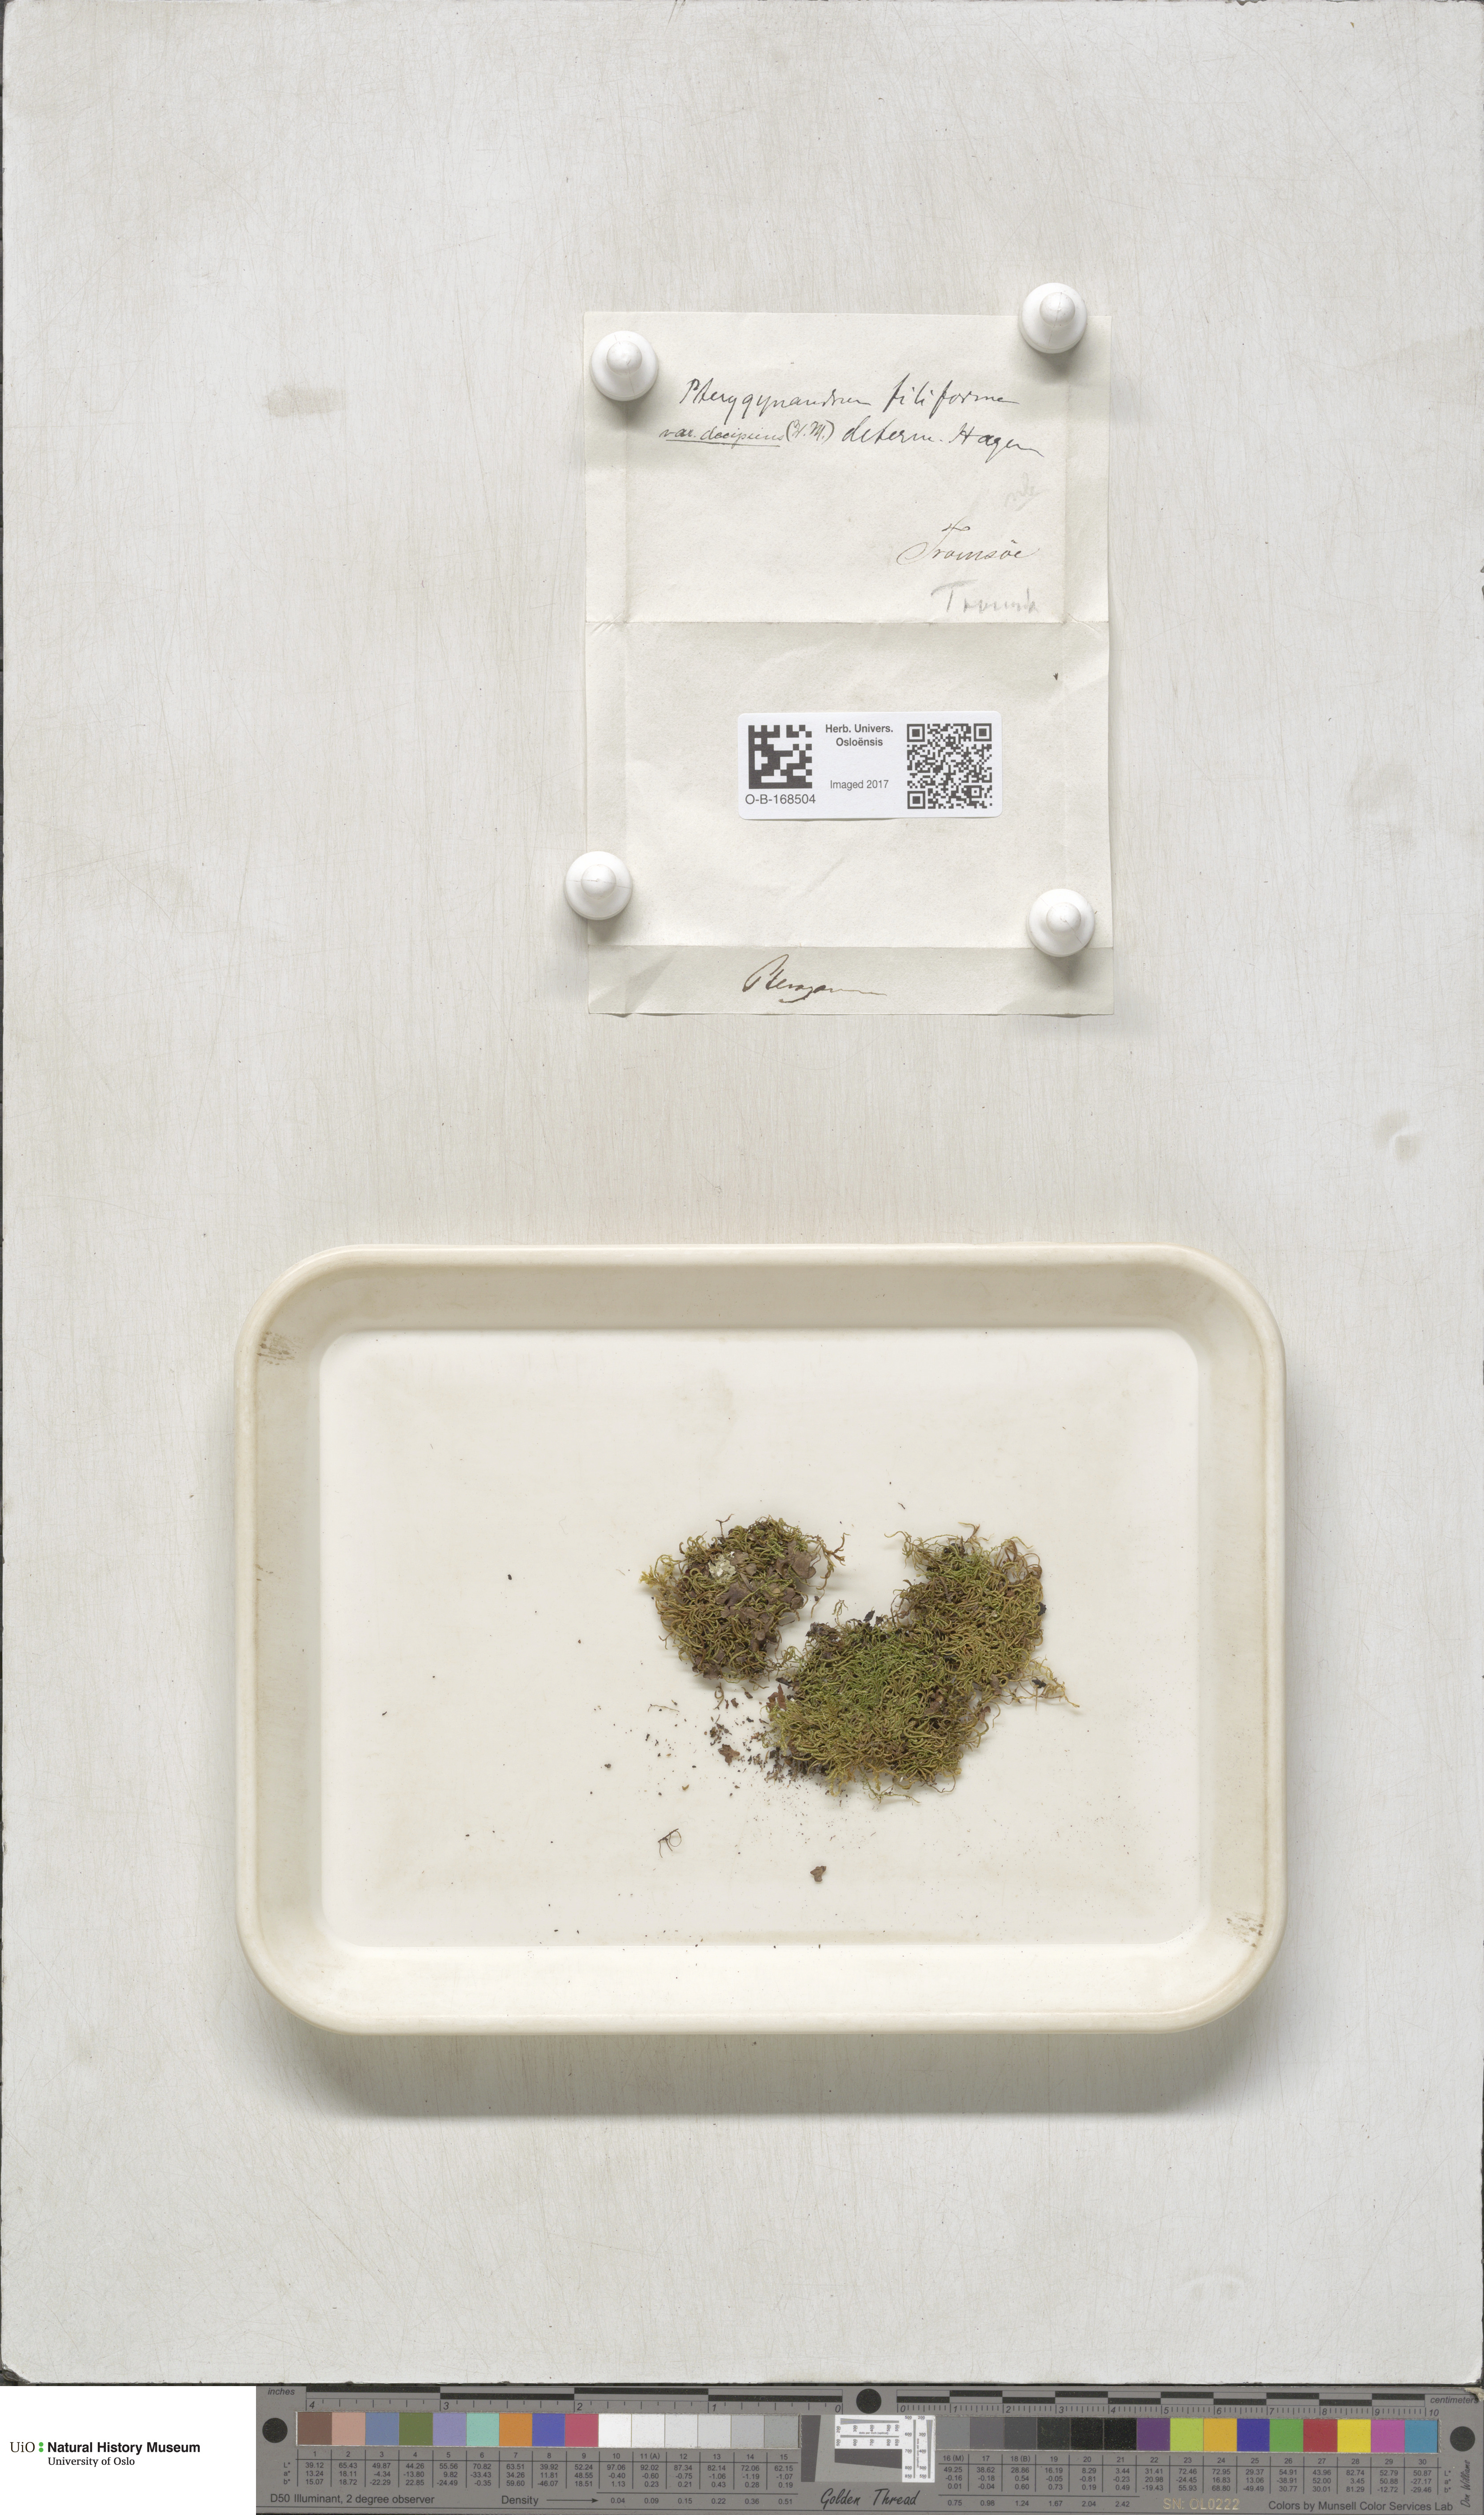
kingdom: Plantae
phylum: Bryophyta
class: Bryopsida
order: Hypnales
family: Pterigynandraceae
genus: Pterigynandrum
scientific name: Pterigynandrum filiforme
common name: Capillary wing moss
